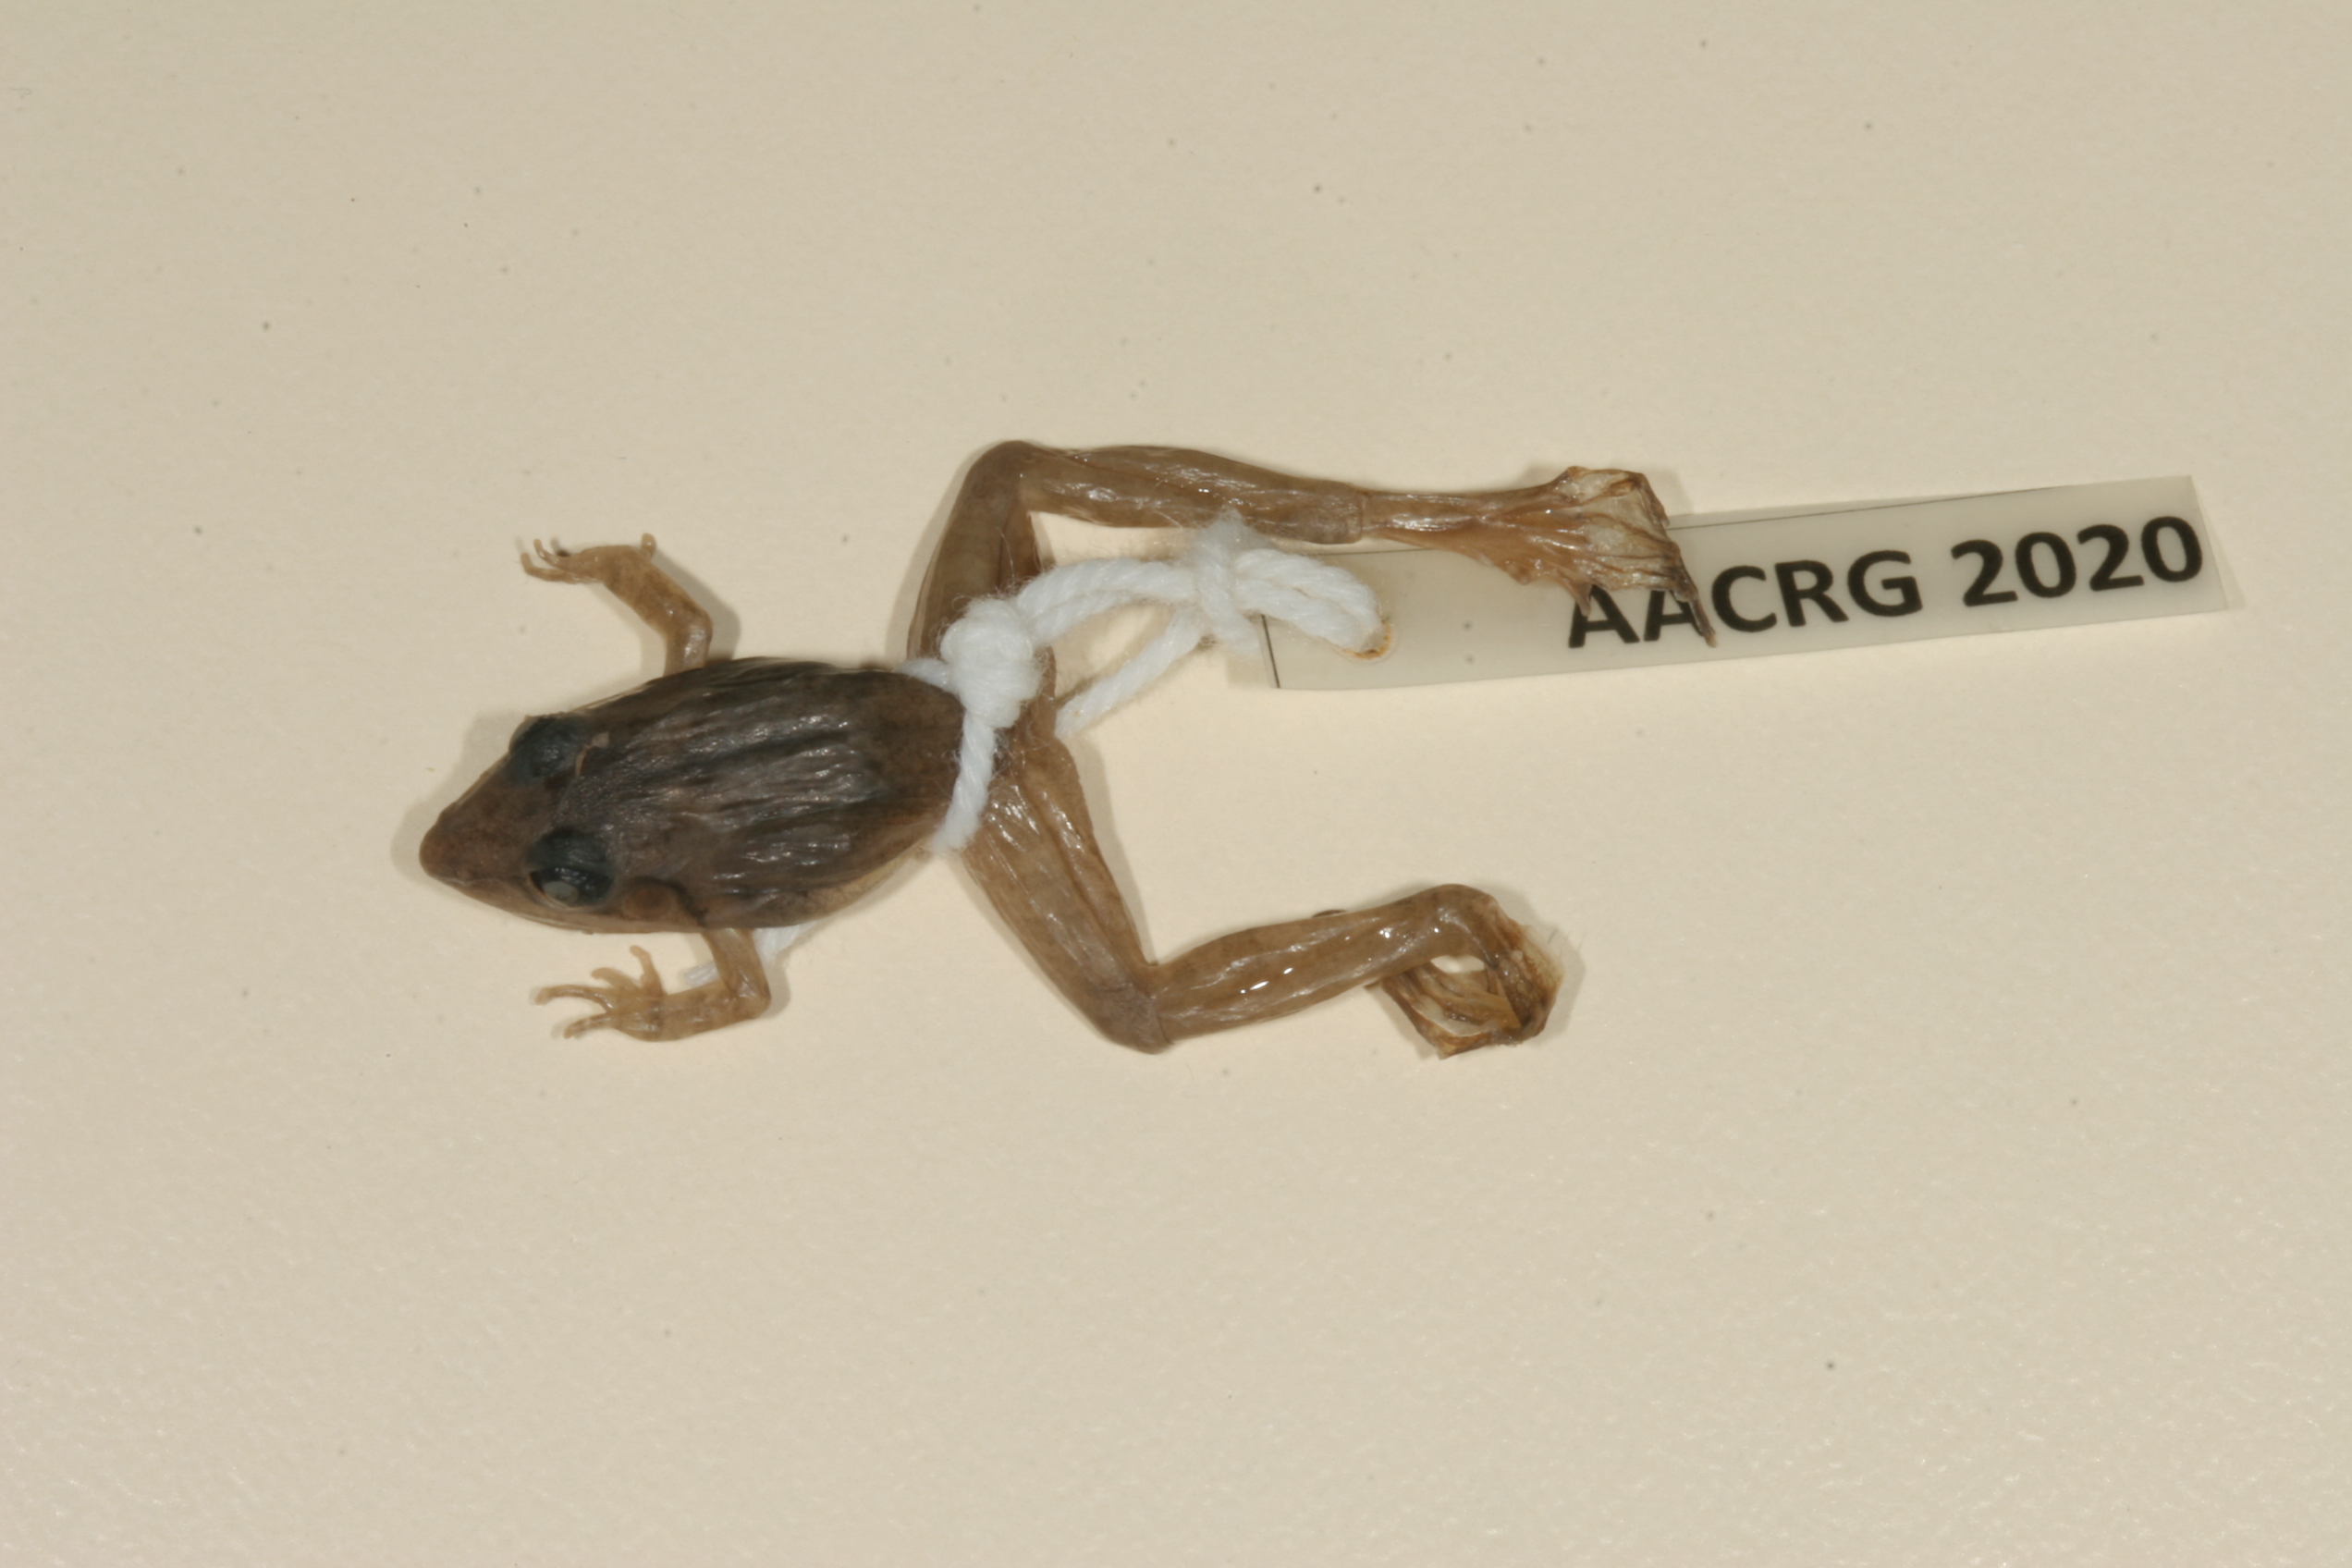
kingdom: Animalia
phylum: Chordata
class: Amphibia
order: Anura
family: Ptychadenidae
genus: Ptychadena
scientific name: Ptychadena anchietae
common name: Anchieta's ridged frog
